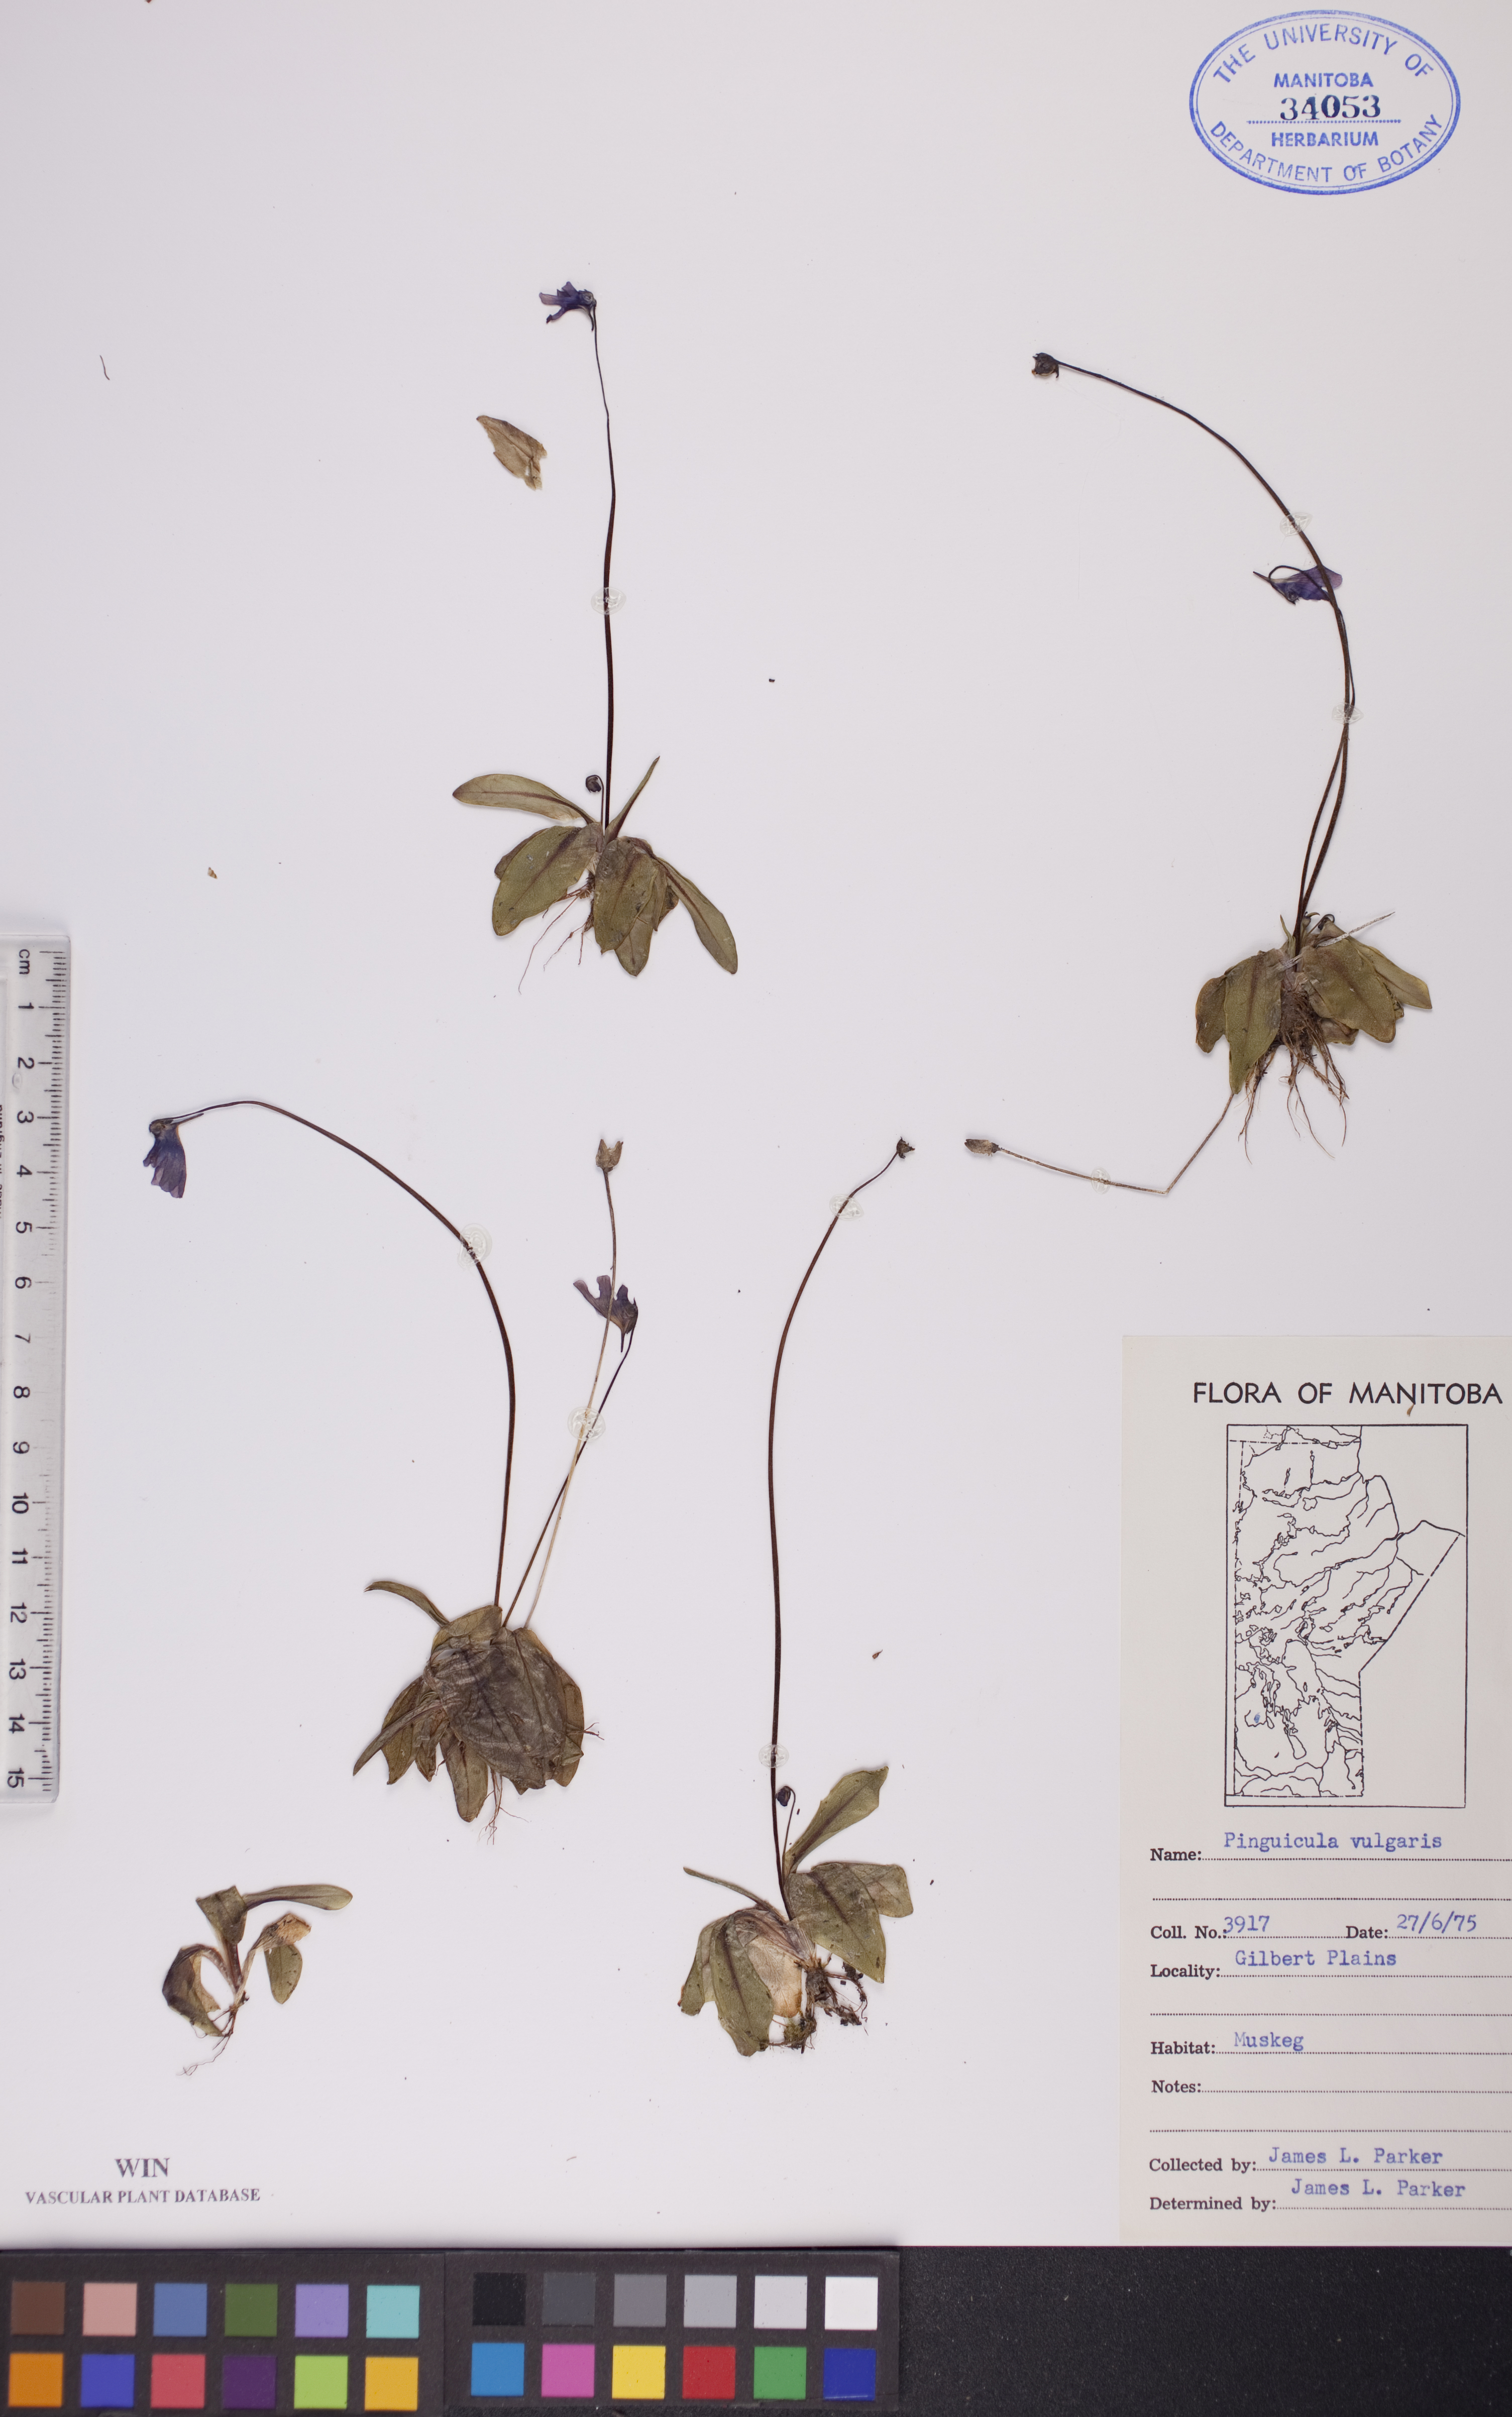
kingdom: Plantae
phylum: Tracheophyta
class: Magnoliopsida
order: Lamiales
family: Lentibulariaceae
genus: Pinguicula
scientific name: Pinguicula vulgaris
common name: Common butterwort
